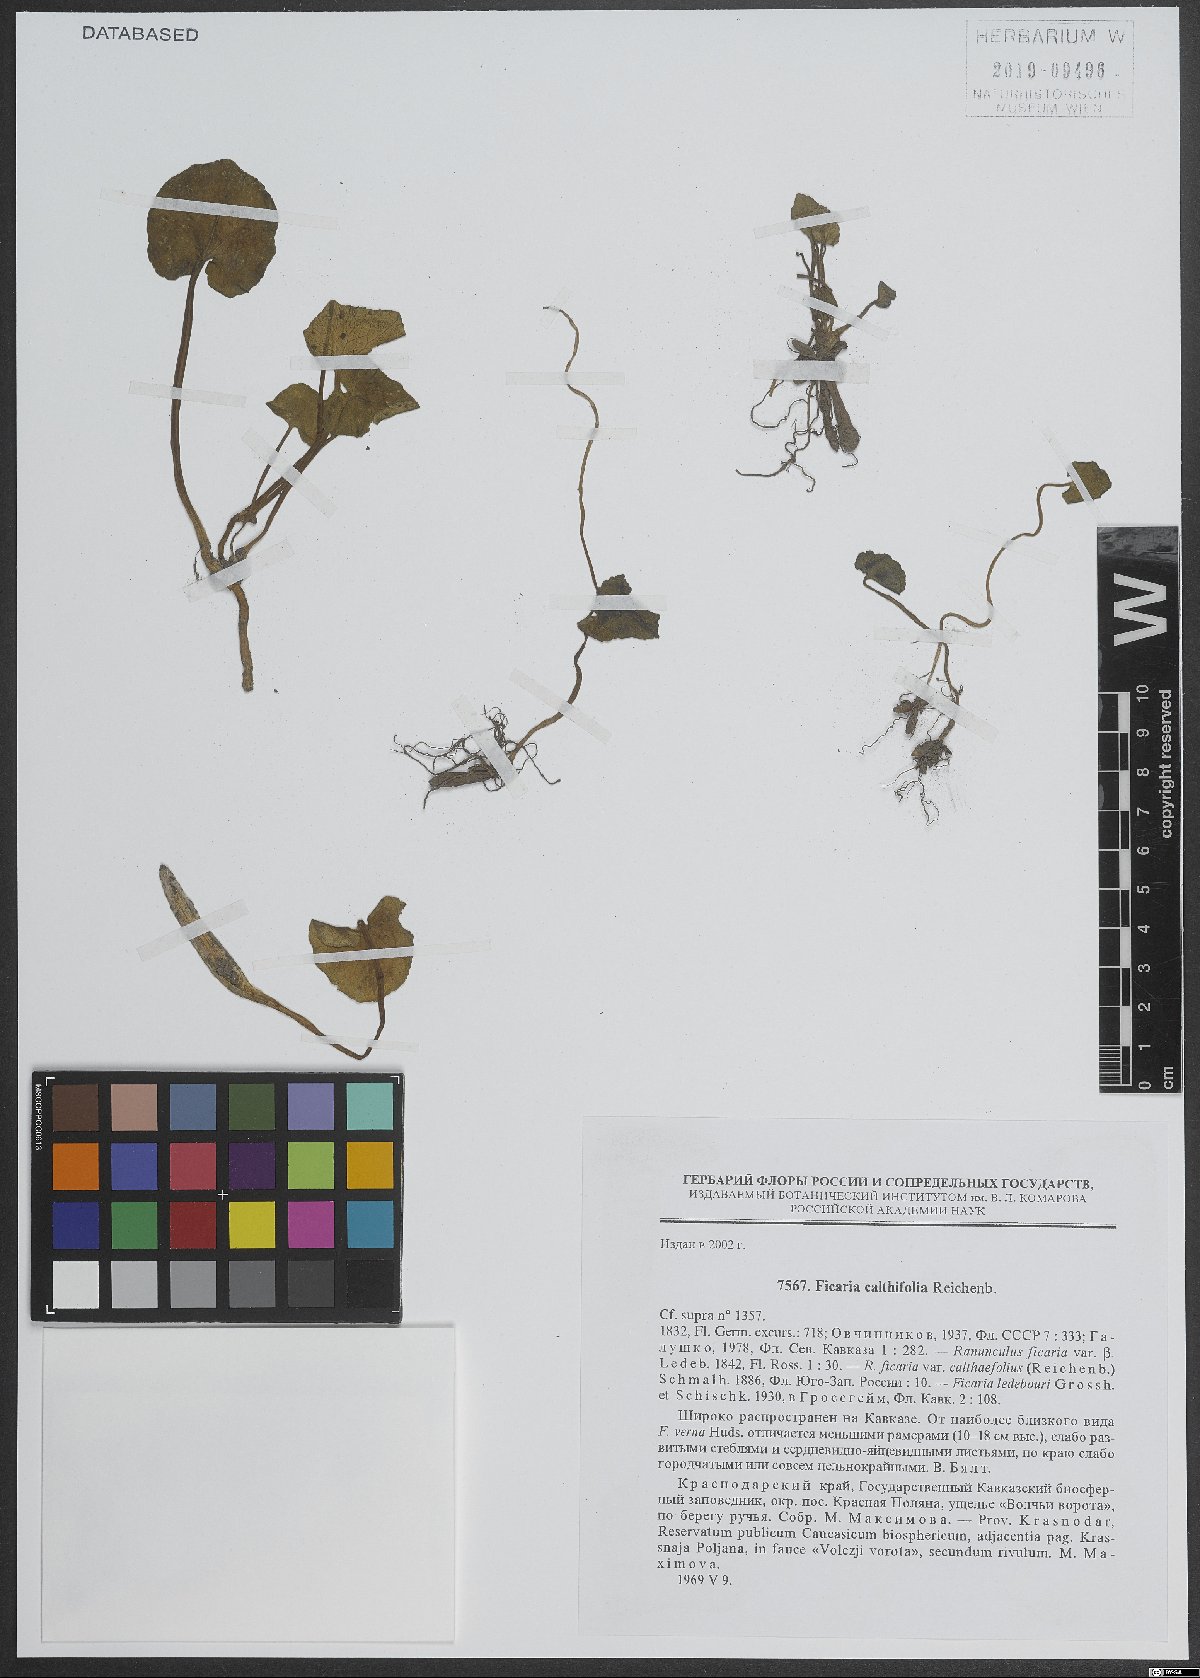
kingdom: Plantae
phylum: Tracheophyta
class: Magnoliopsida
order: Ranunculales
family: Ranunculaceae
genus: Ficaria
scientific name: Ficaria calthifolia
